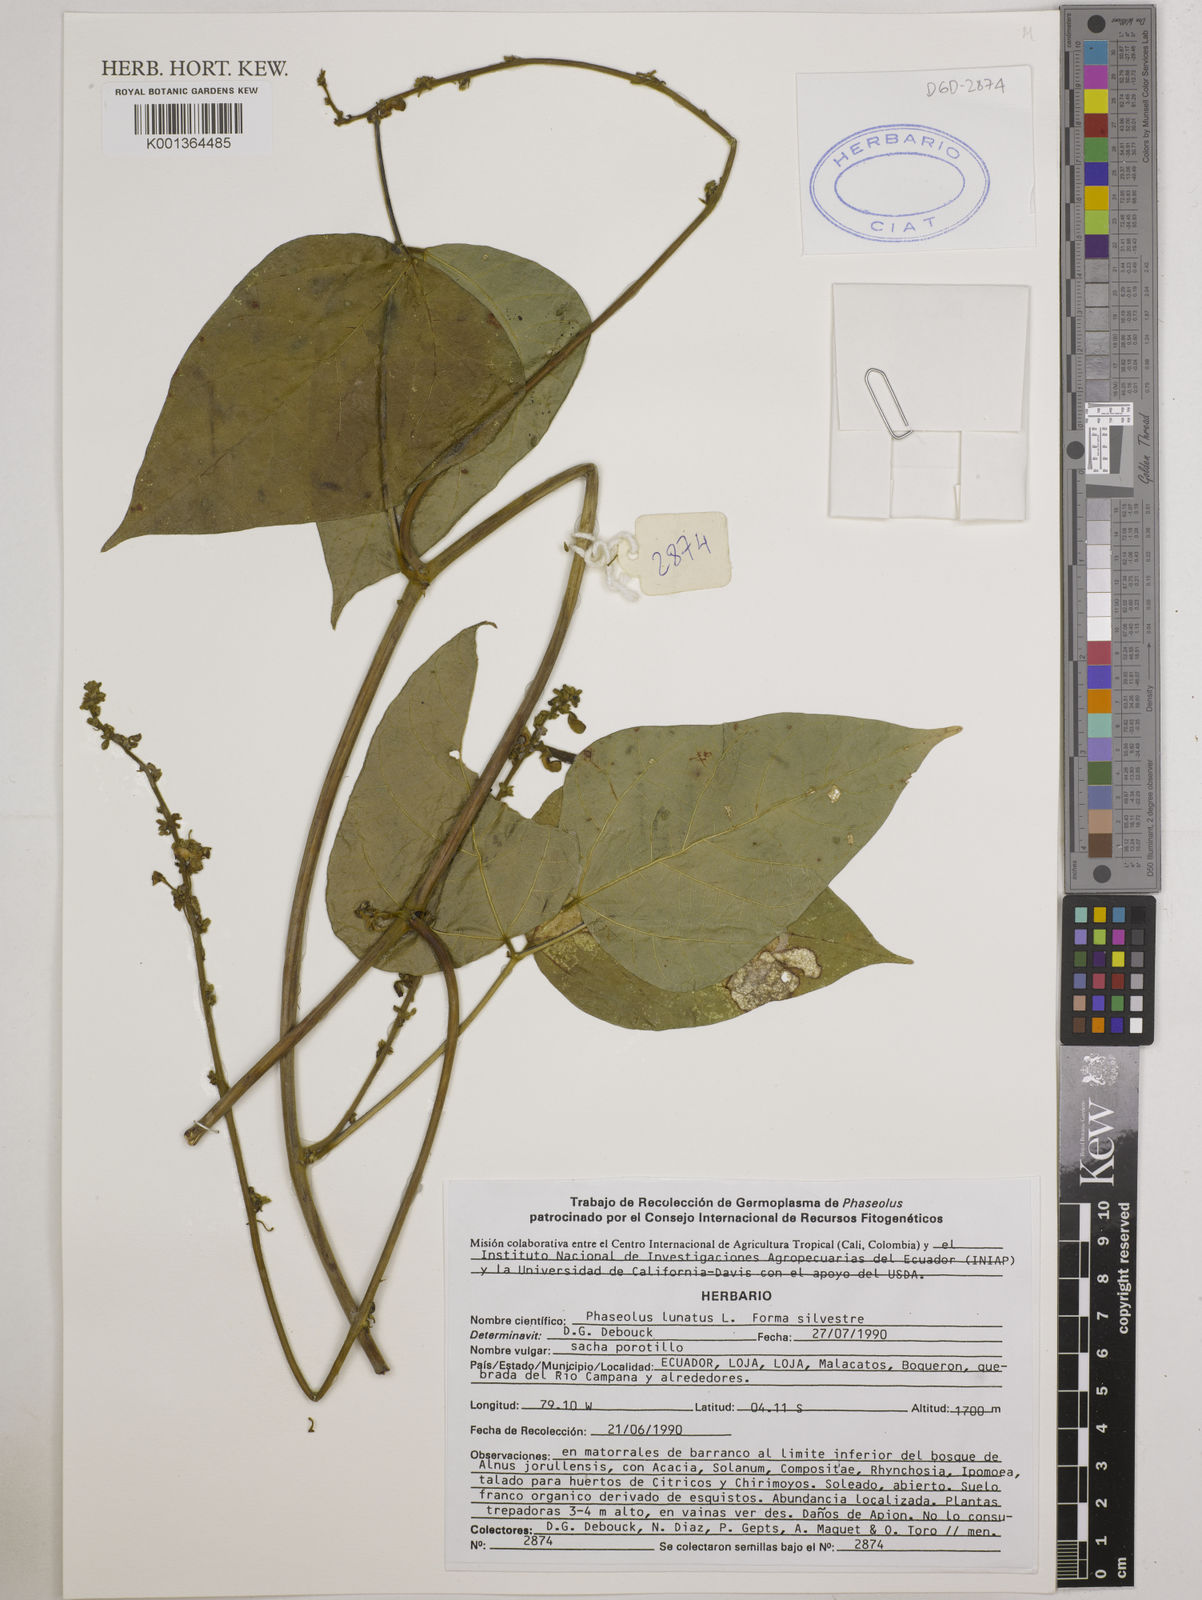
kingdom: Plantae
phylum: Tracheophyta
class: Magnoliopsida
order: Fabales
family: Fabaceae
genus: Phaseolus
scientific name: Phaseolus lunatus
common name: Sieva bean
